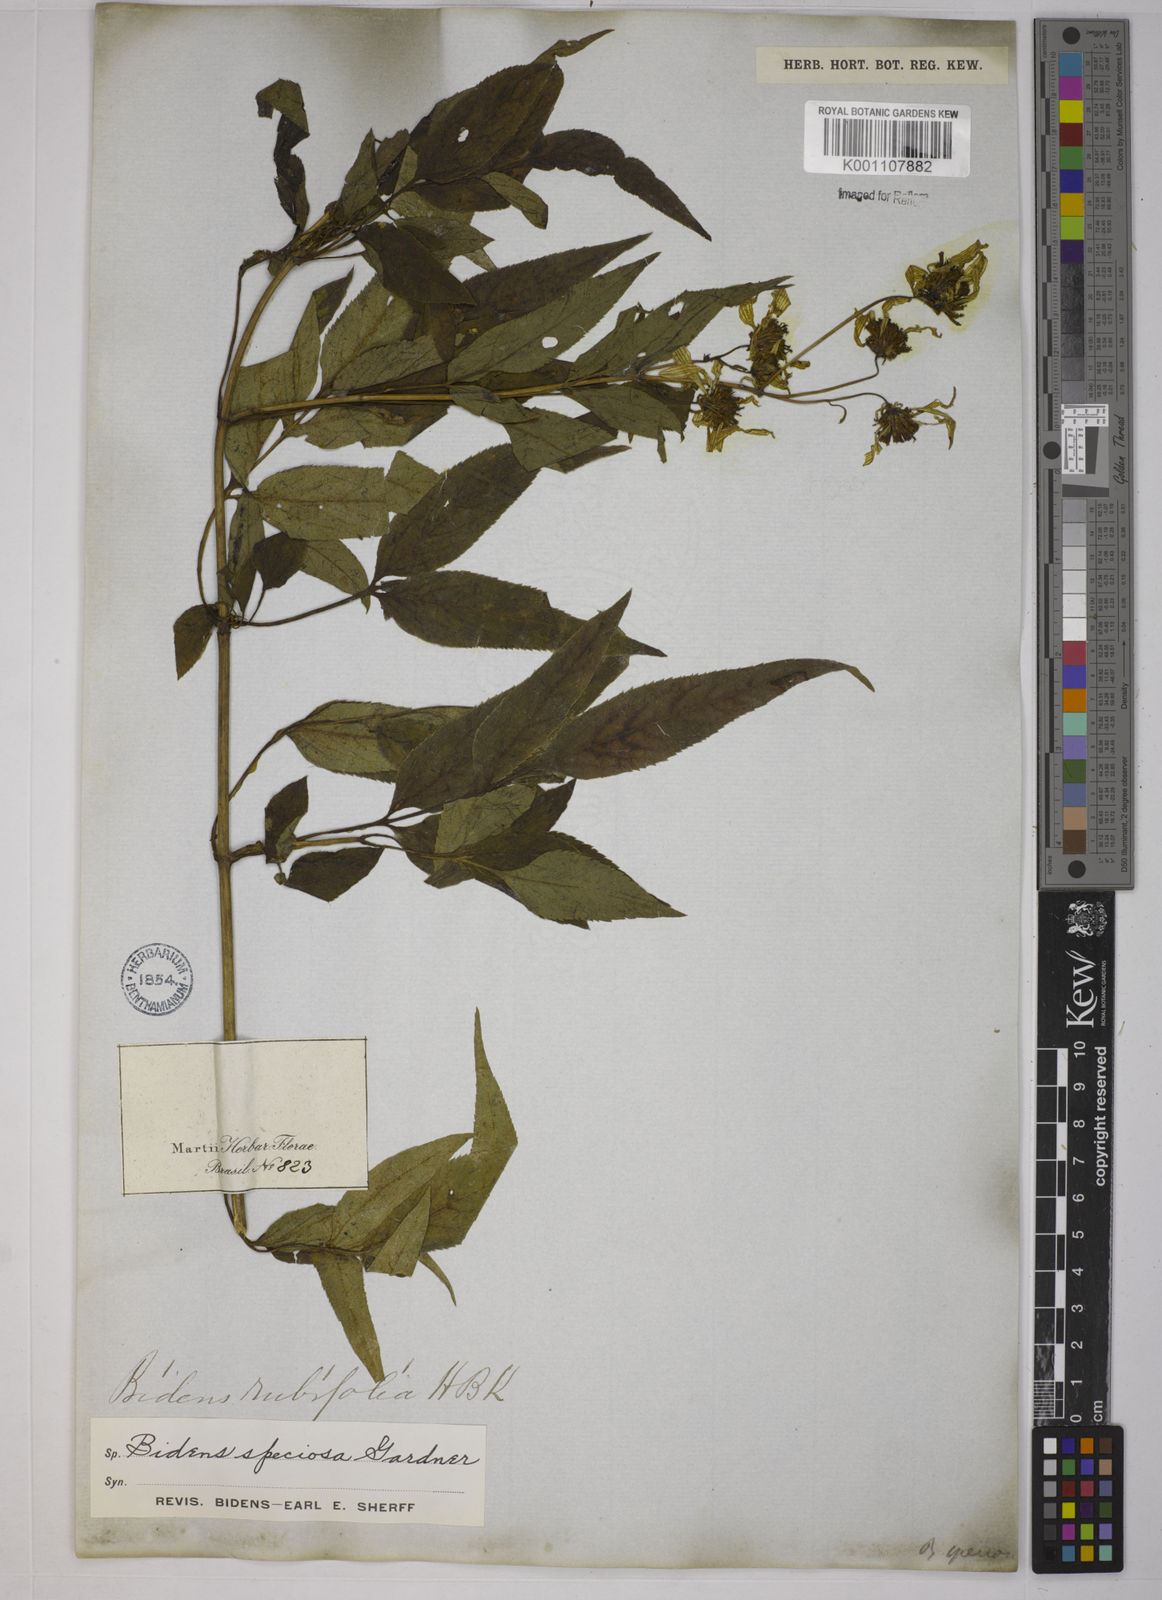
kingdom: Plantae
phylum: Tracheophyta
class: Magnoliopsida
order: Asterales
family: Asteraceae
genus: Bidens
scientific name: Bidens segetum
